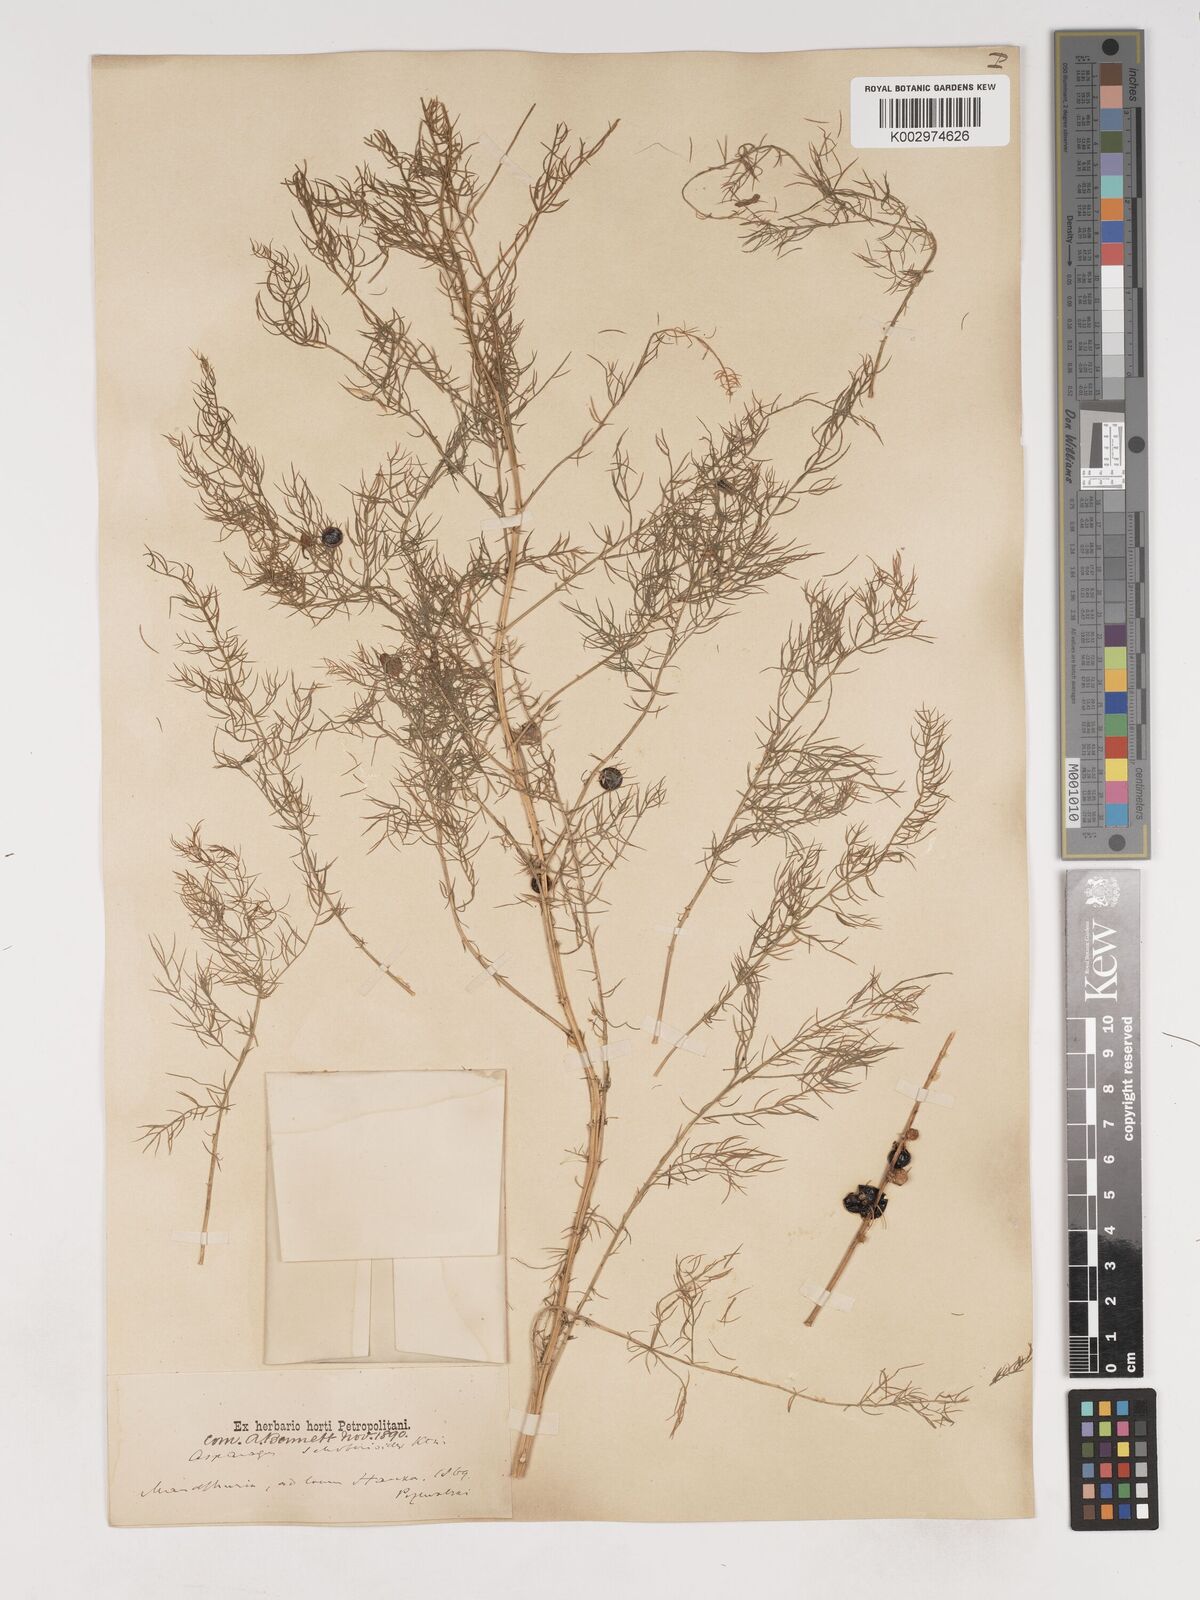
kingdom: Plantae
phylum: Tracheophyta
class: Liliopsida
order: Asparagales
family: Asparagaceae
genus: Asparagus
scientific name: Asparagus schoberioides
